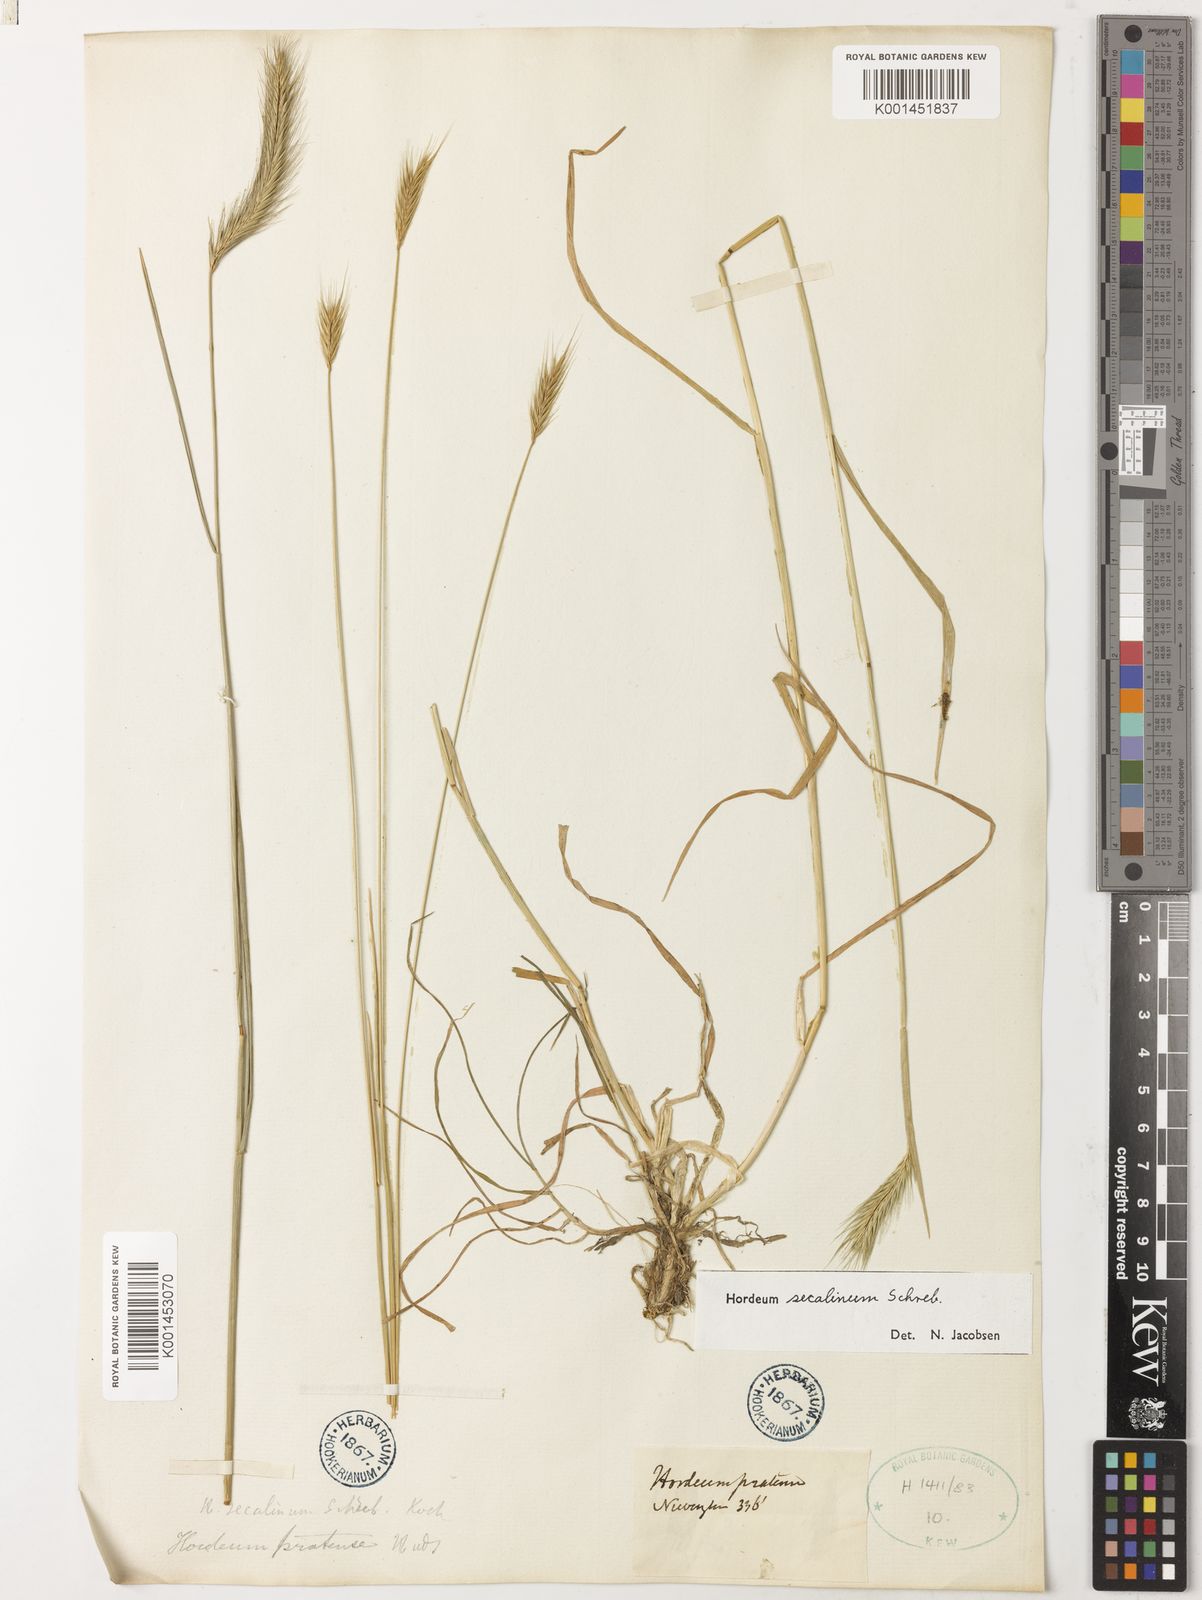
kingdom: Plantae
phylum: Tracheophyta
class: Liliopsida
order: Poales
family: Poaceae
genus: Hordeum
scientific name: Hordeum secalinum
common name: Meadow barley
